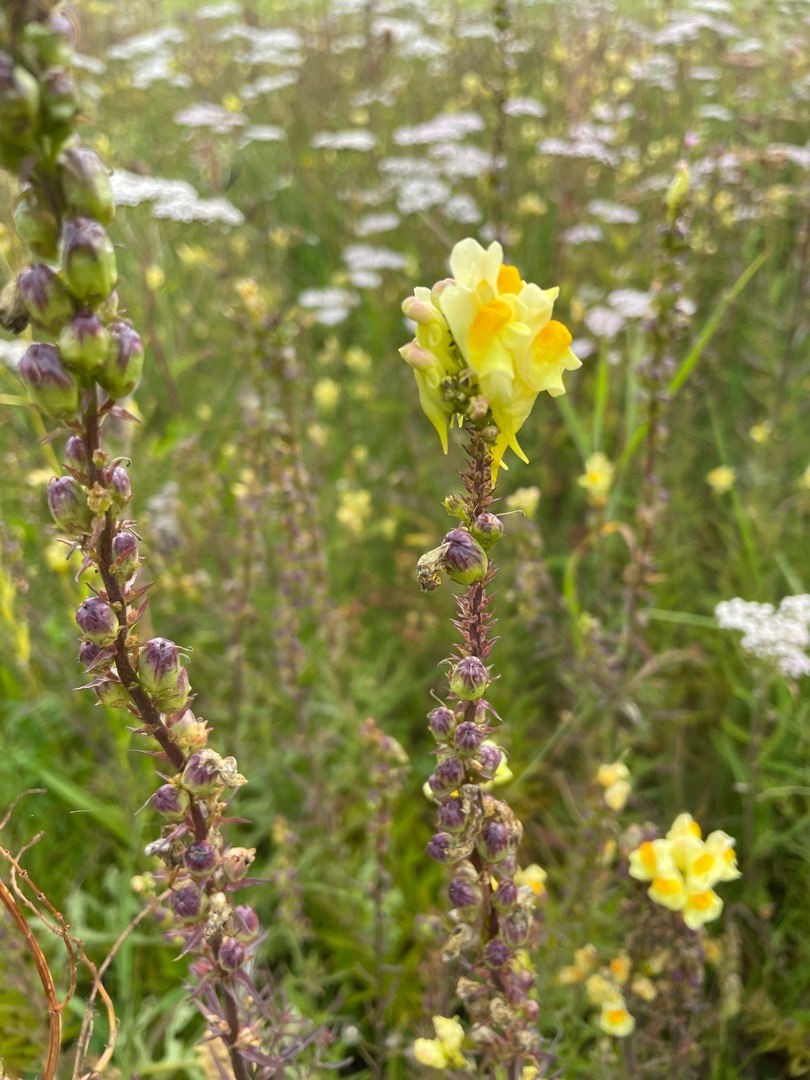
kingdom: Plantae
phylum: Tracheophyta
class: Magnoliopsida
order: Lamiales
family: Plantaginaceae
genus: Linaria
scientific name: Linaria vulgaris
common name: Almindelig torskemund
